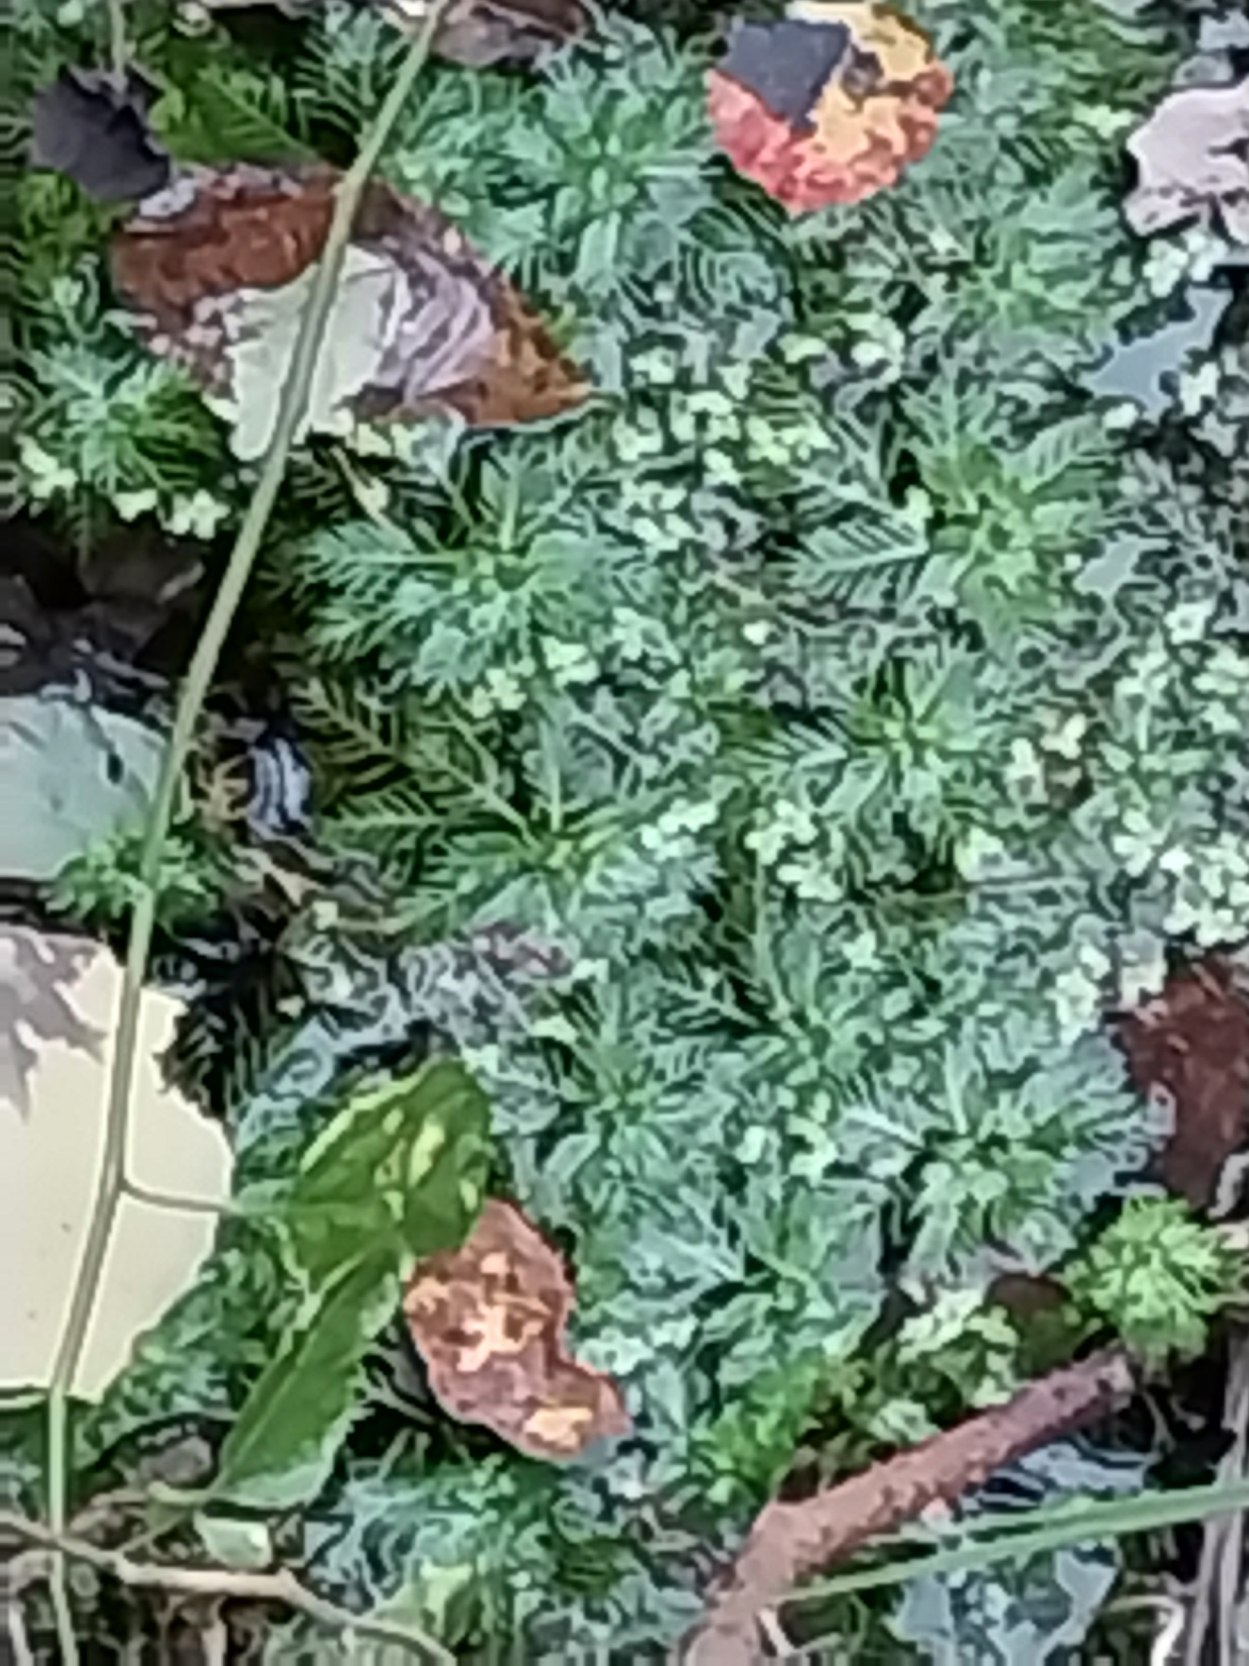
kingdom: Plantae
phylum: Tracheophyta
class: Magnoliopsida
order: Ericales
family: Primulaceae
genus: Hottonia
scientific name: Hottonia palustris
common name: Vandrøllike
